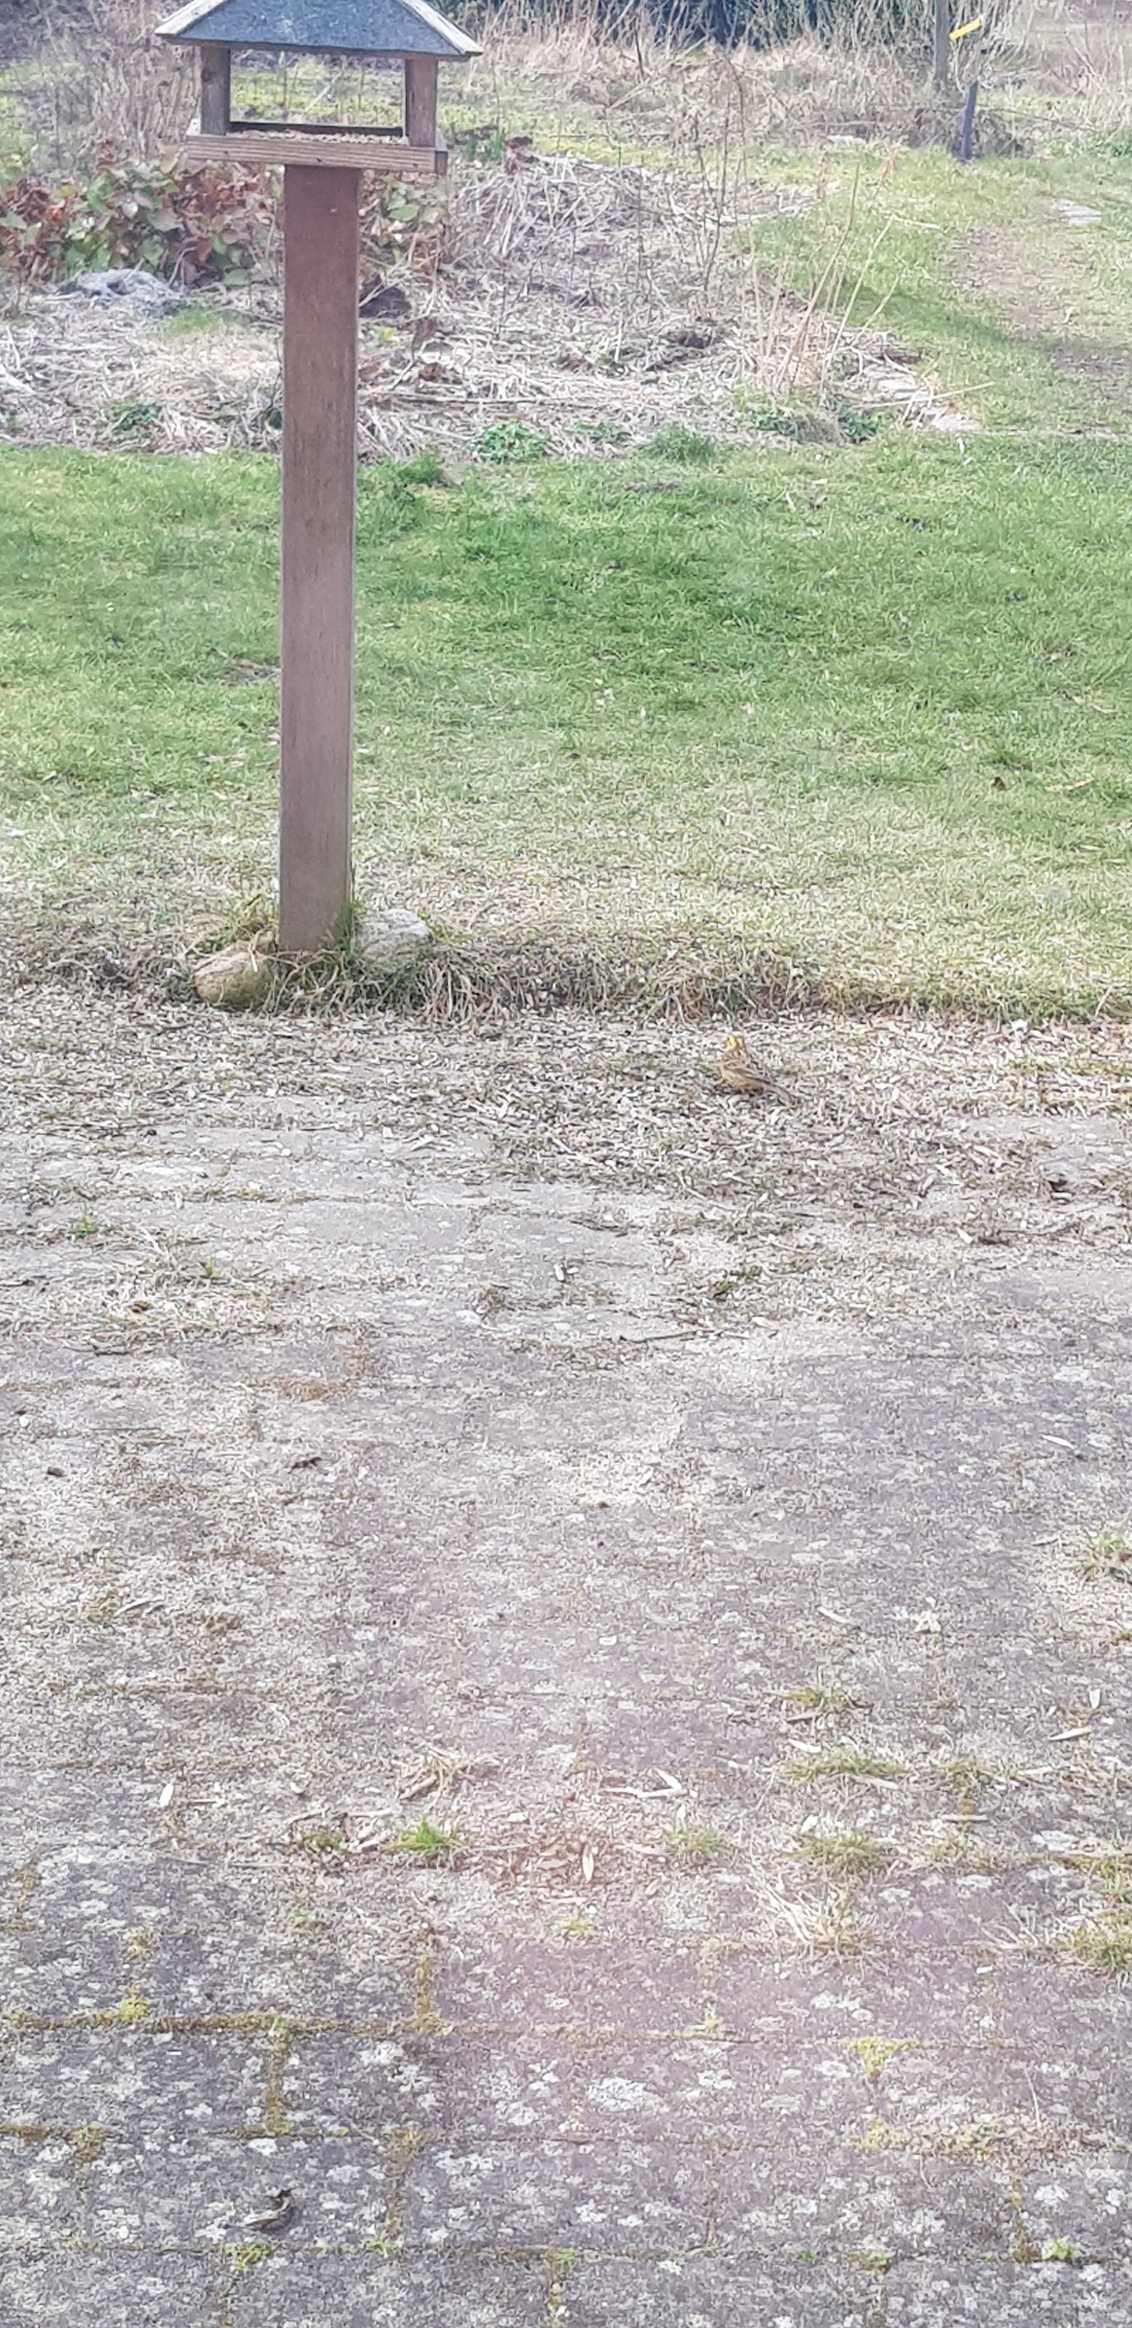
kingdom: Animalia
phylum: Chordata
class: Aves
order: Passeriformes
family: Emberizidae
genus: Emberiza
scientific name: Emberiza citrinella
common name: Gulspurv
